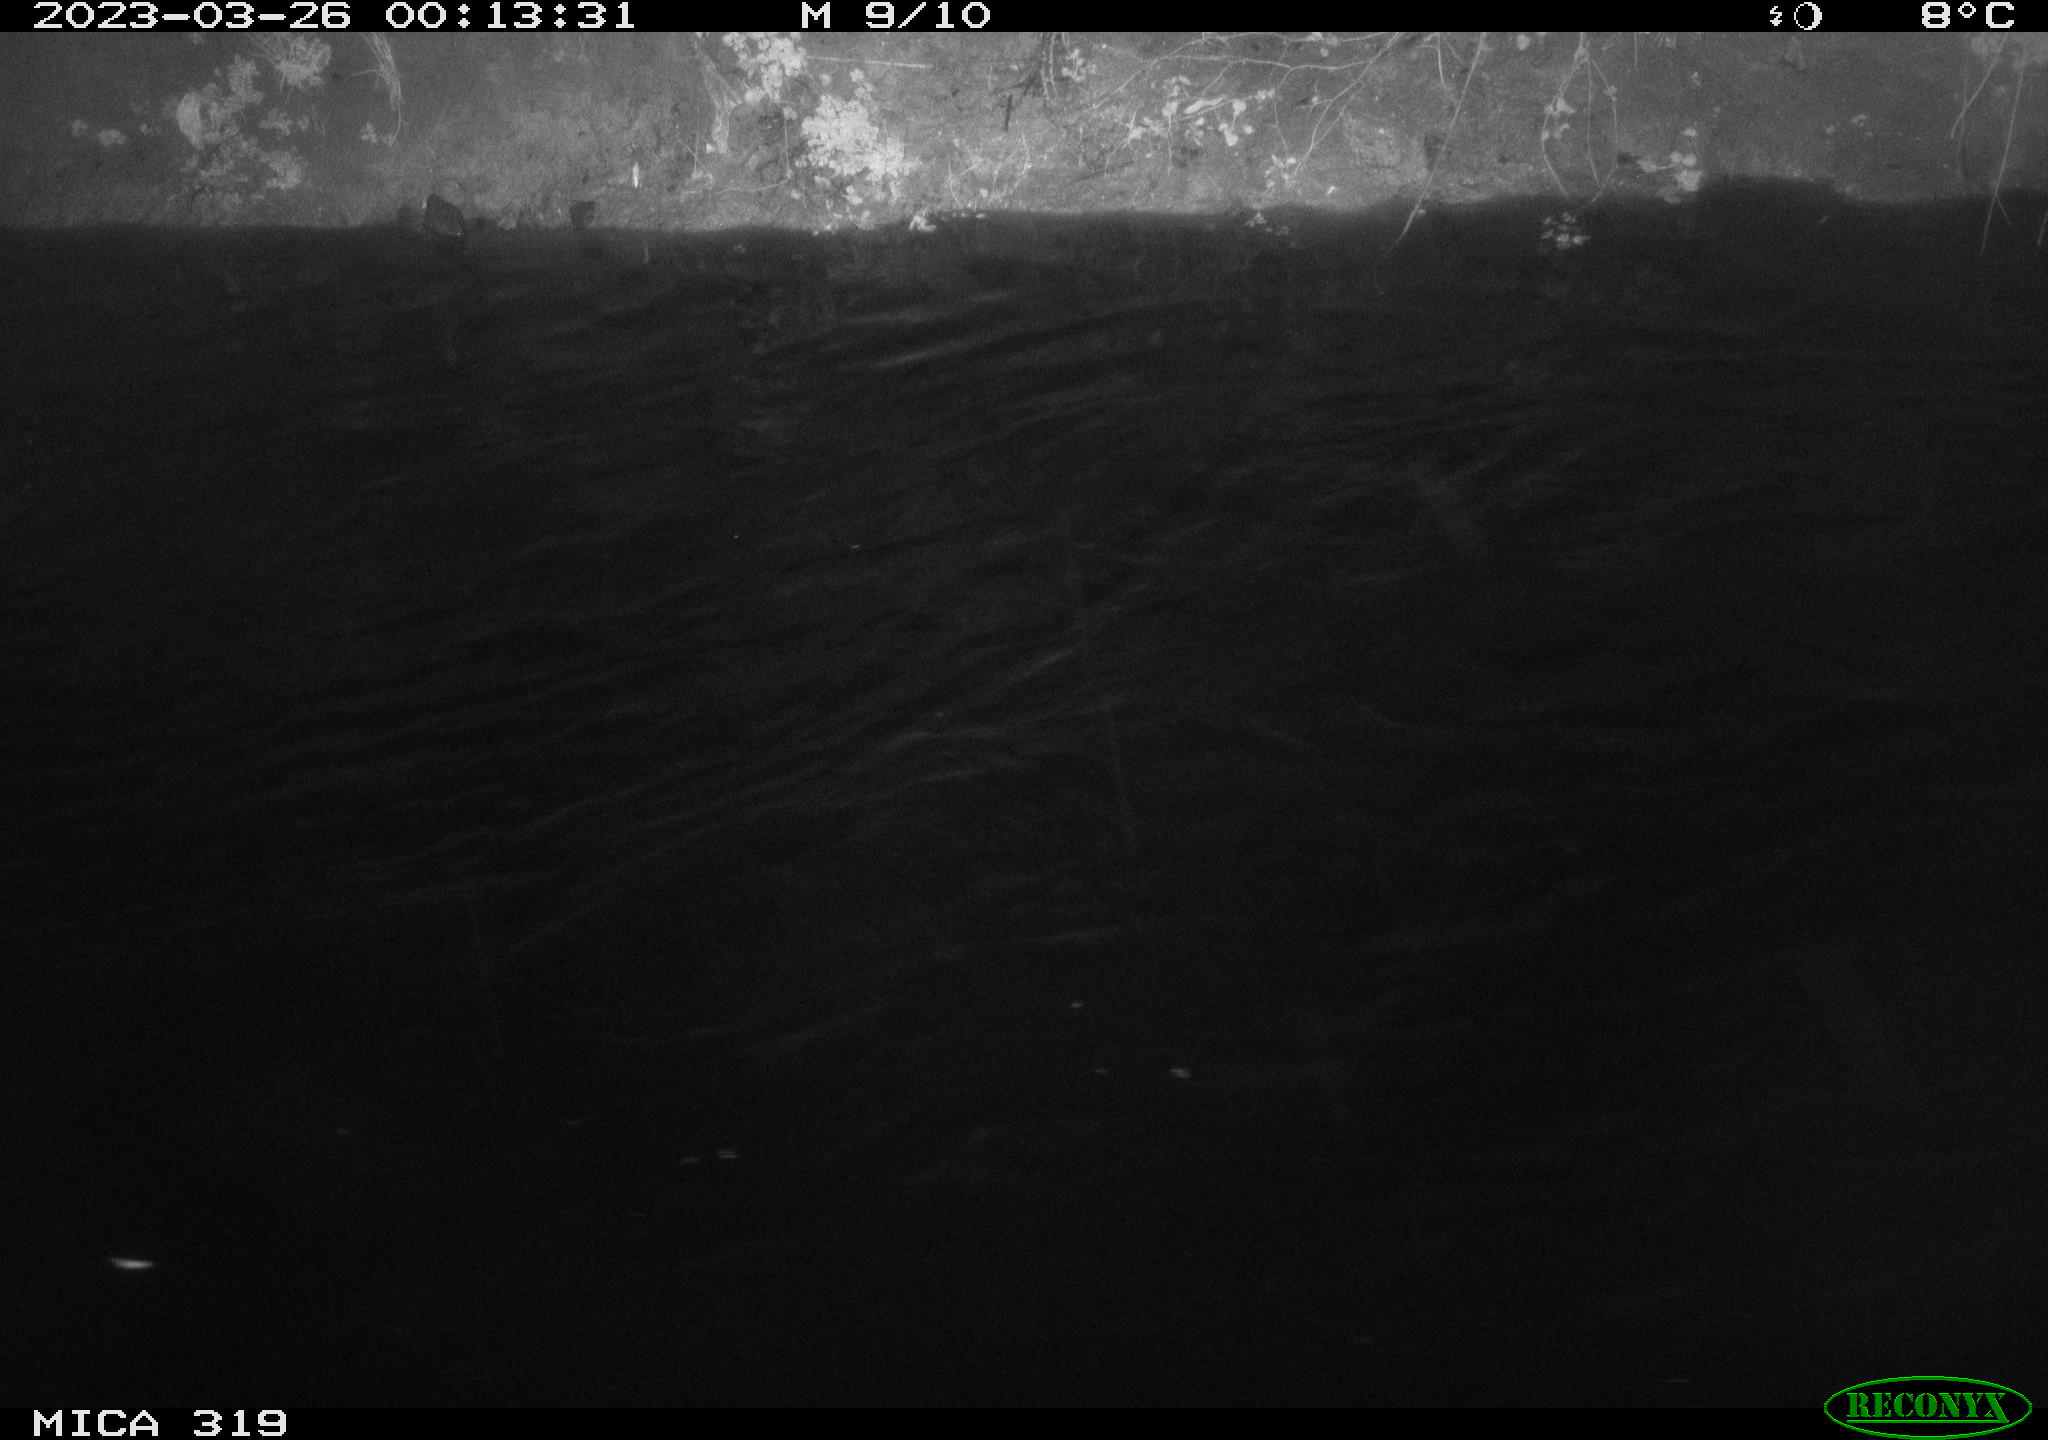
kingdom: Animalia
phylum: Chordata
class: Aves
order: Anseriformes
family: Anatidae
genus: Anas
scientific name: Anas
